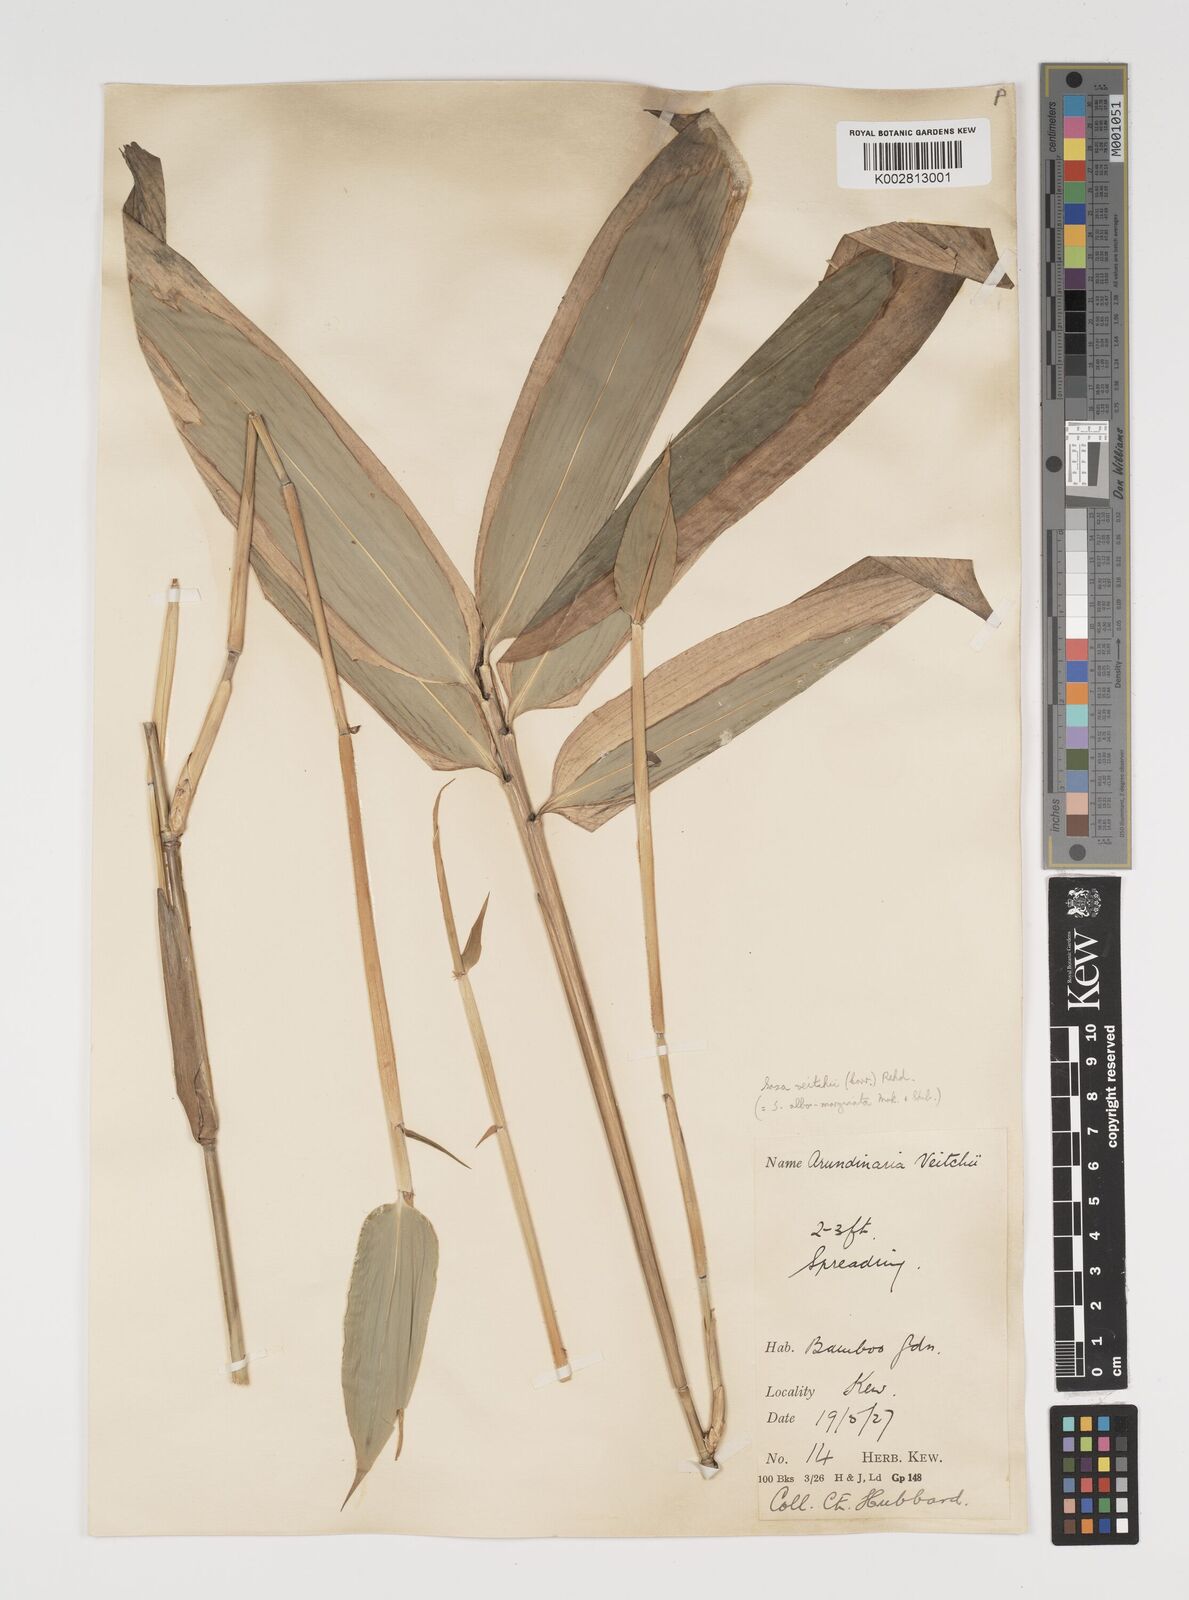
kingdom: Plantae
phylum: Tracheophyta
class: Liliopsida
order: Poales
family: Poaceae
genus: Sasa
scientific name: Sasa veitchii
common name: Veitch's bamboo
